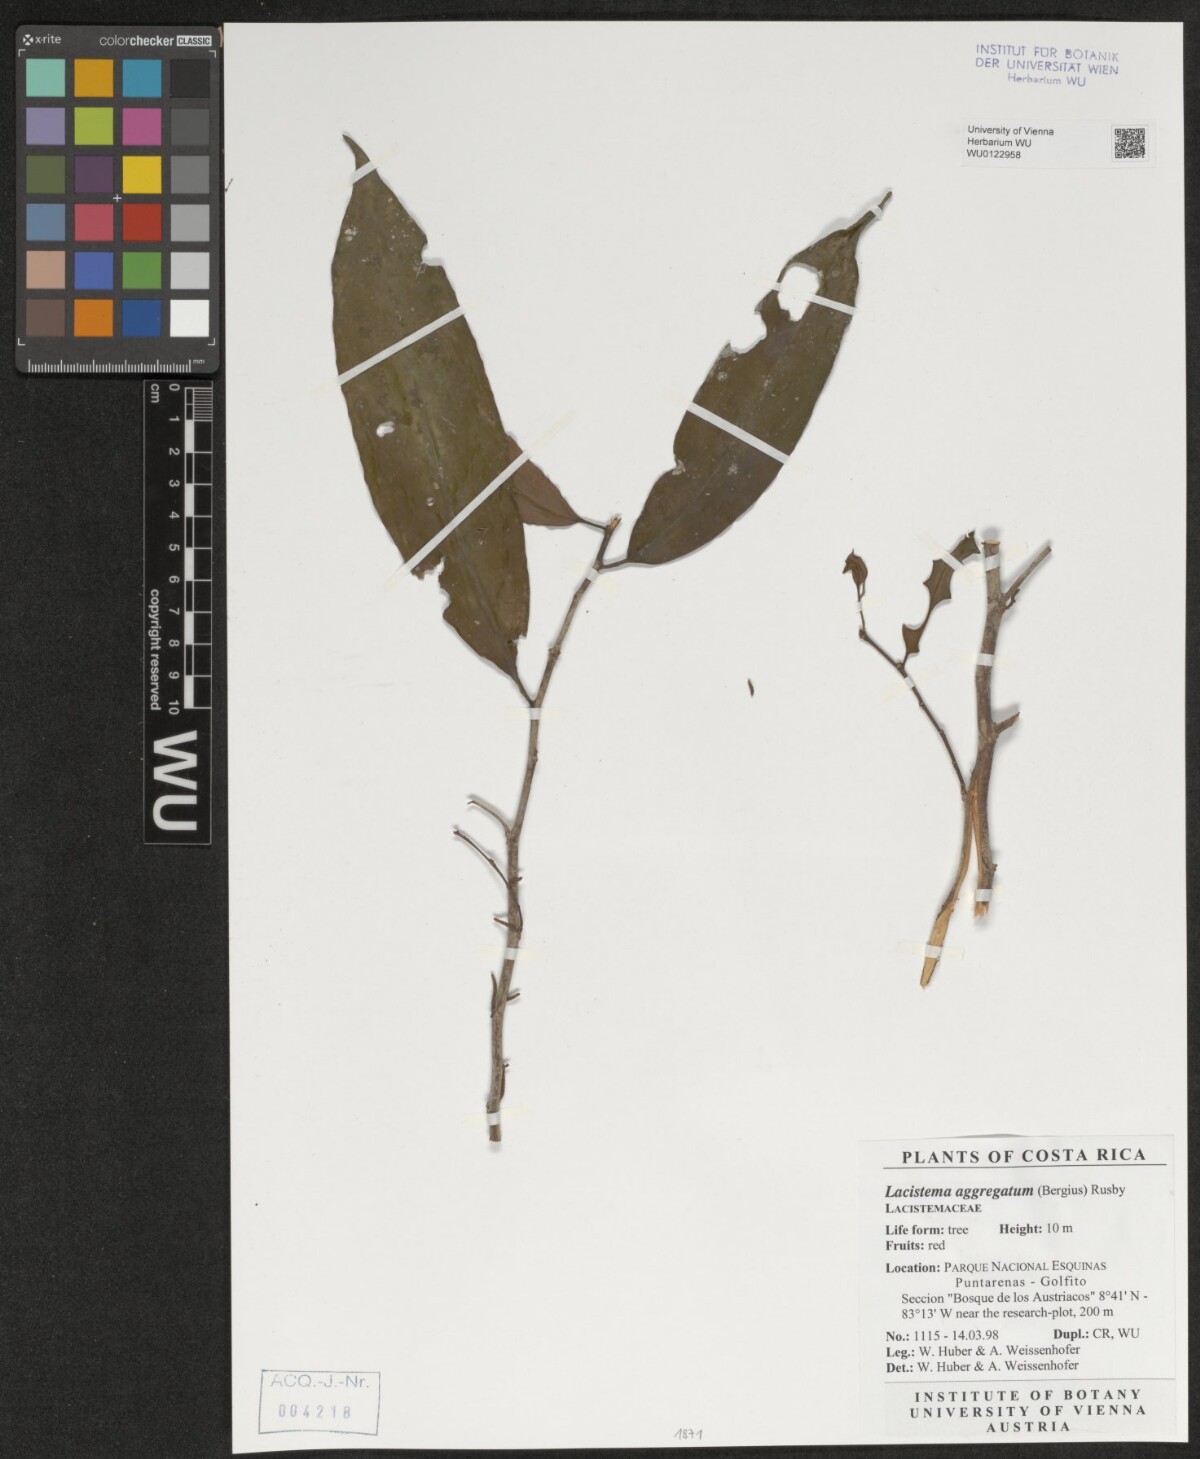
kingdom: Plantae
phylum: Tracheophyta
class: Magnoliopsida
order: Malpighiales
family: Lacistemataceae
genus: Lacistema
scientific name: Lacistema aggregatum
